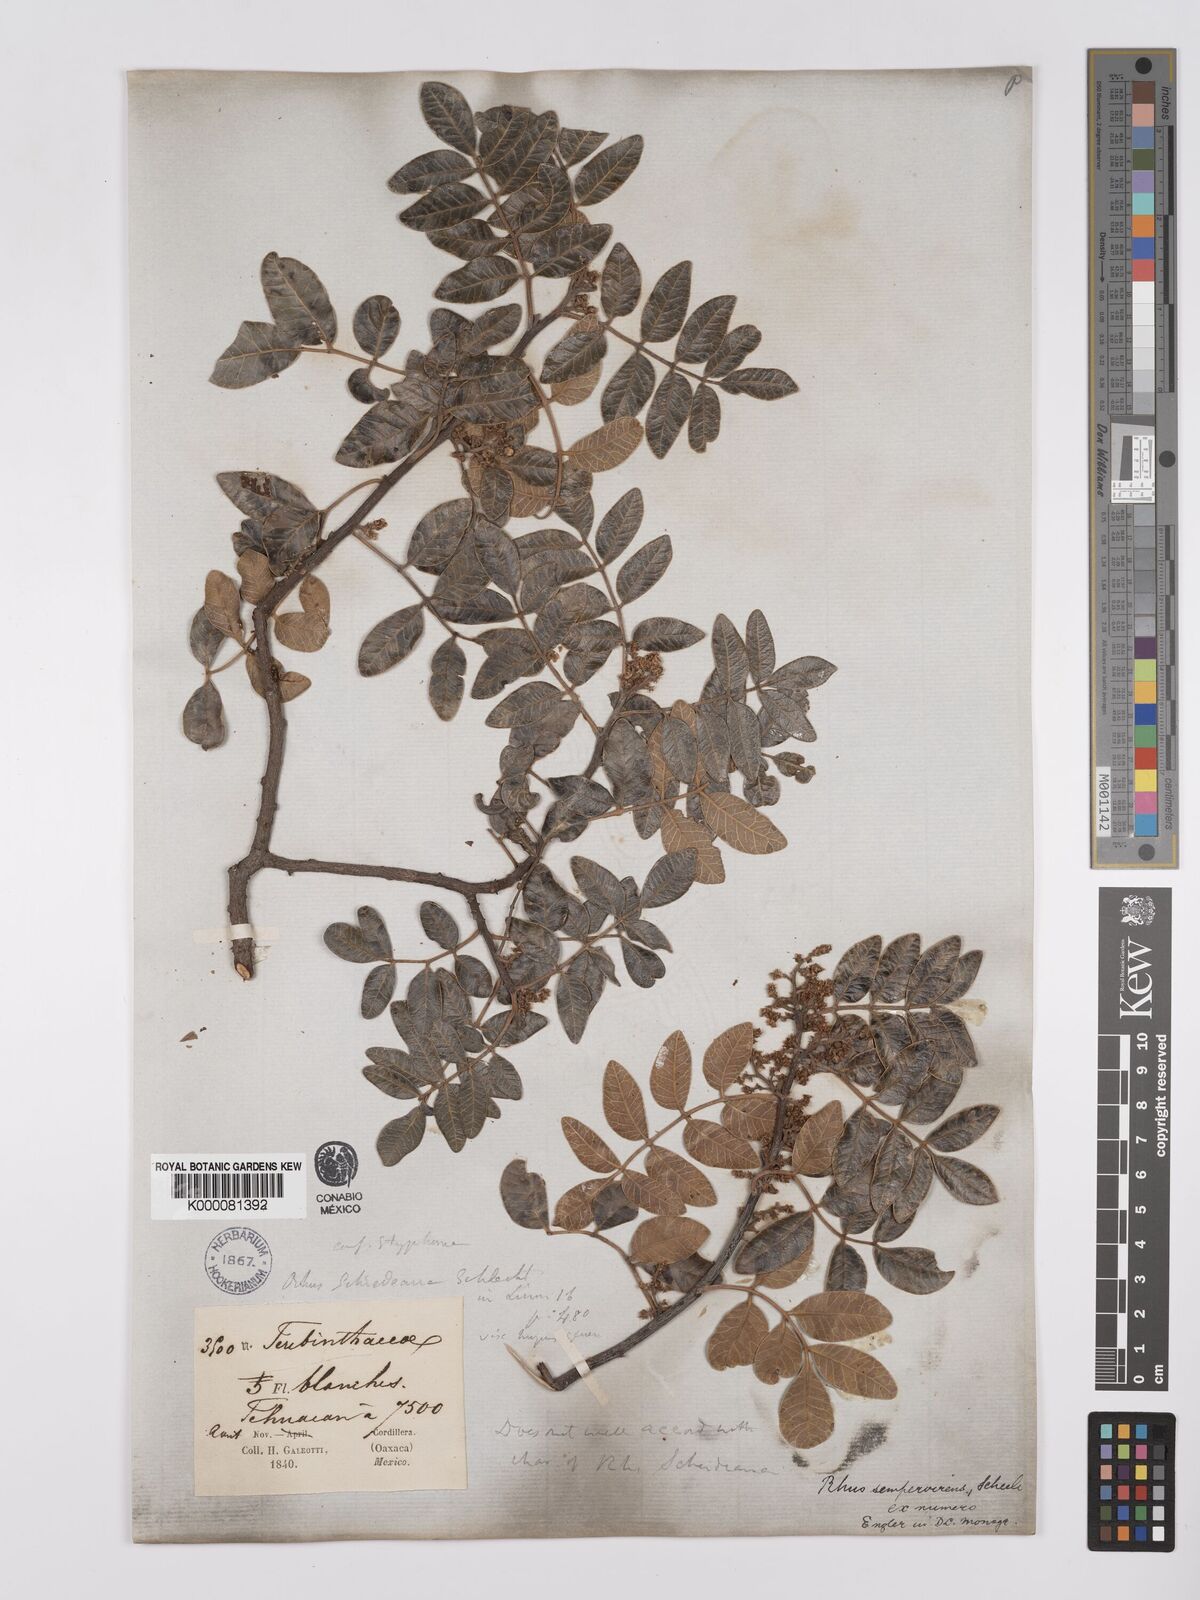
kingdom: Plantae
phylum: Tracheophyta
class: Magnoliopsida
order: Sapindales
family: Anacardiaceae
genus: Rhus
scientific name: Rhus virens
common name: Evergreen sumac
